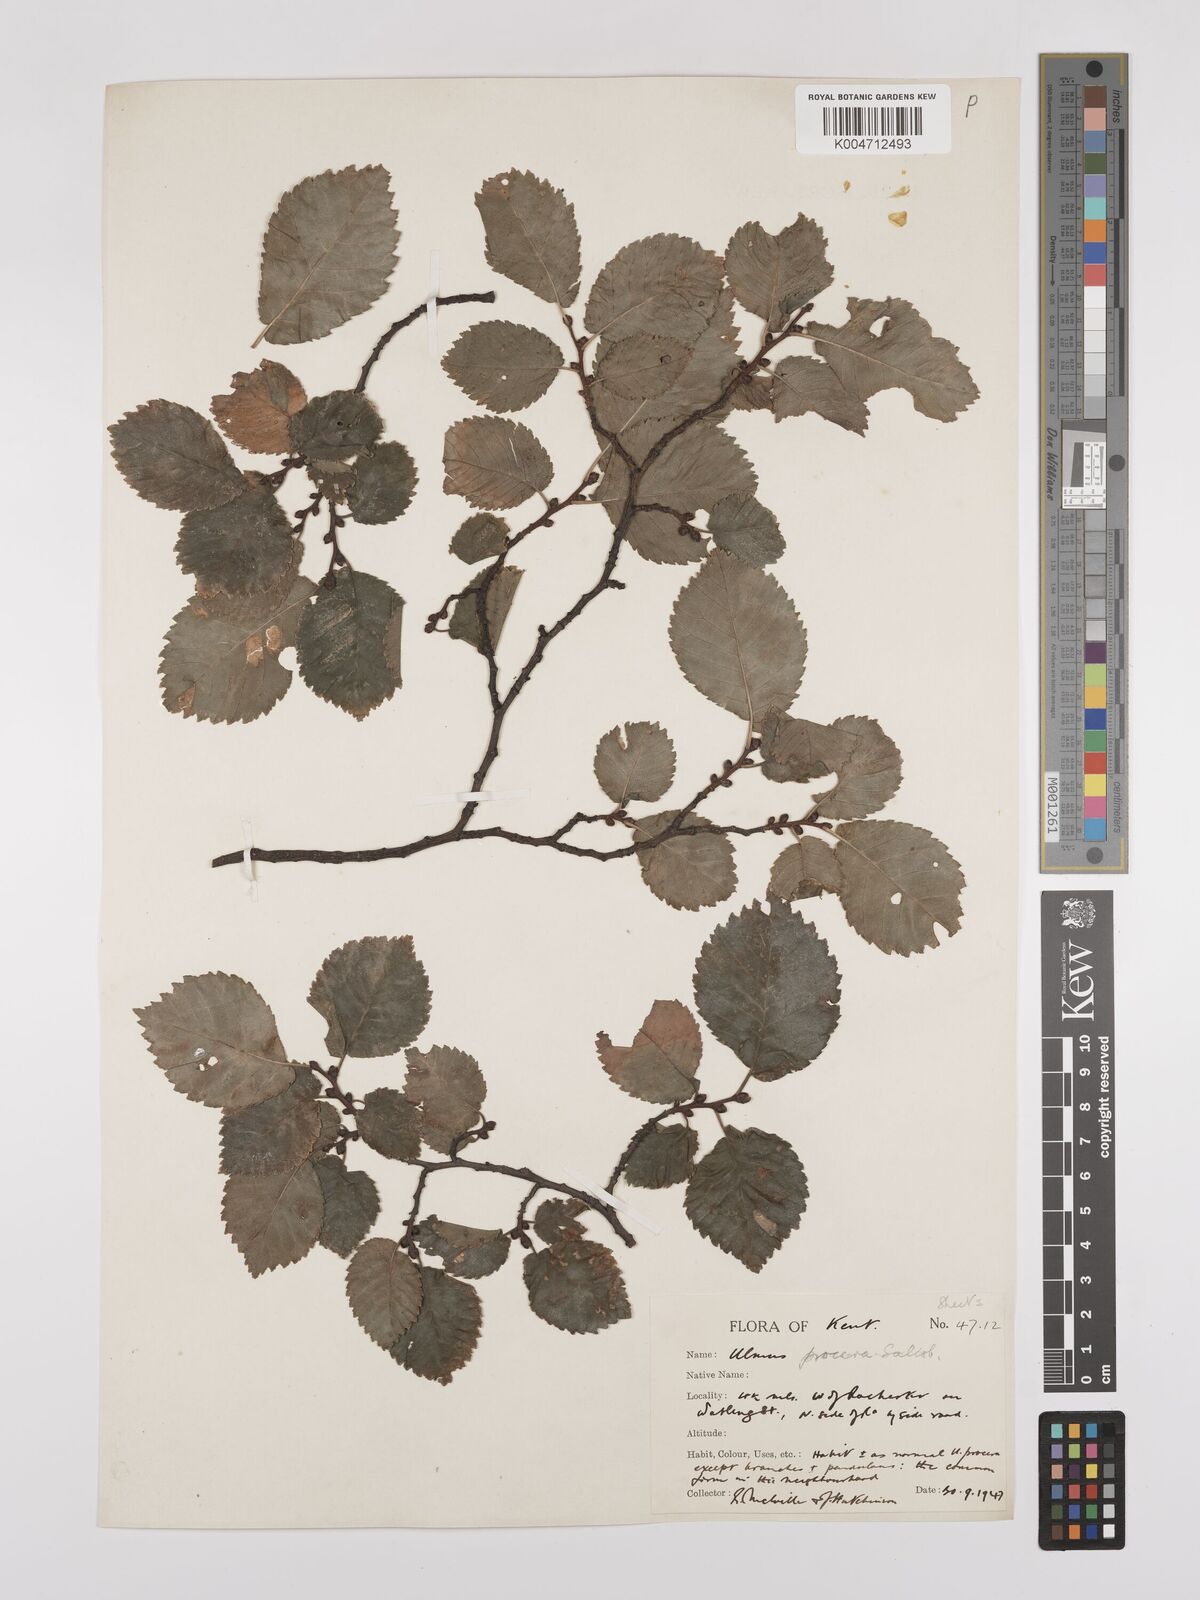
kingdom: Plantae
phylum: Tracheophyta
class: Magnoliopsida
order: Rosales
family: Ulmaceae
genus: Ulmus
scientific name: Ulmus minor
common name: Small-leaved elm
